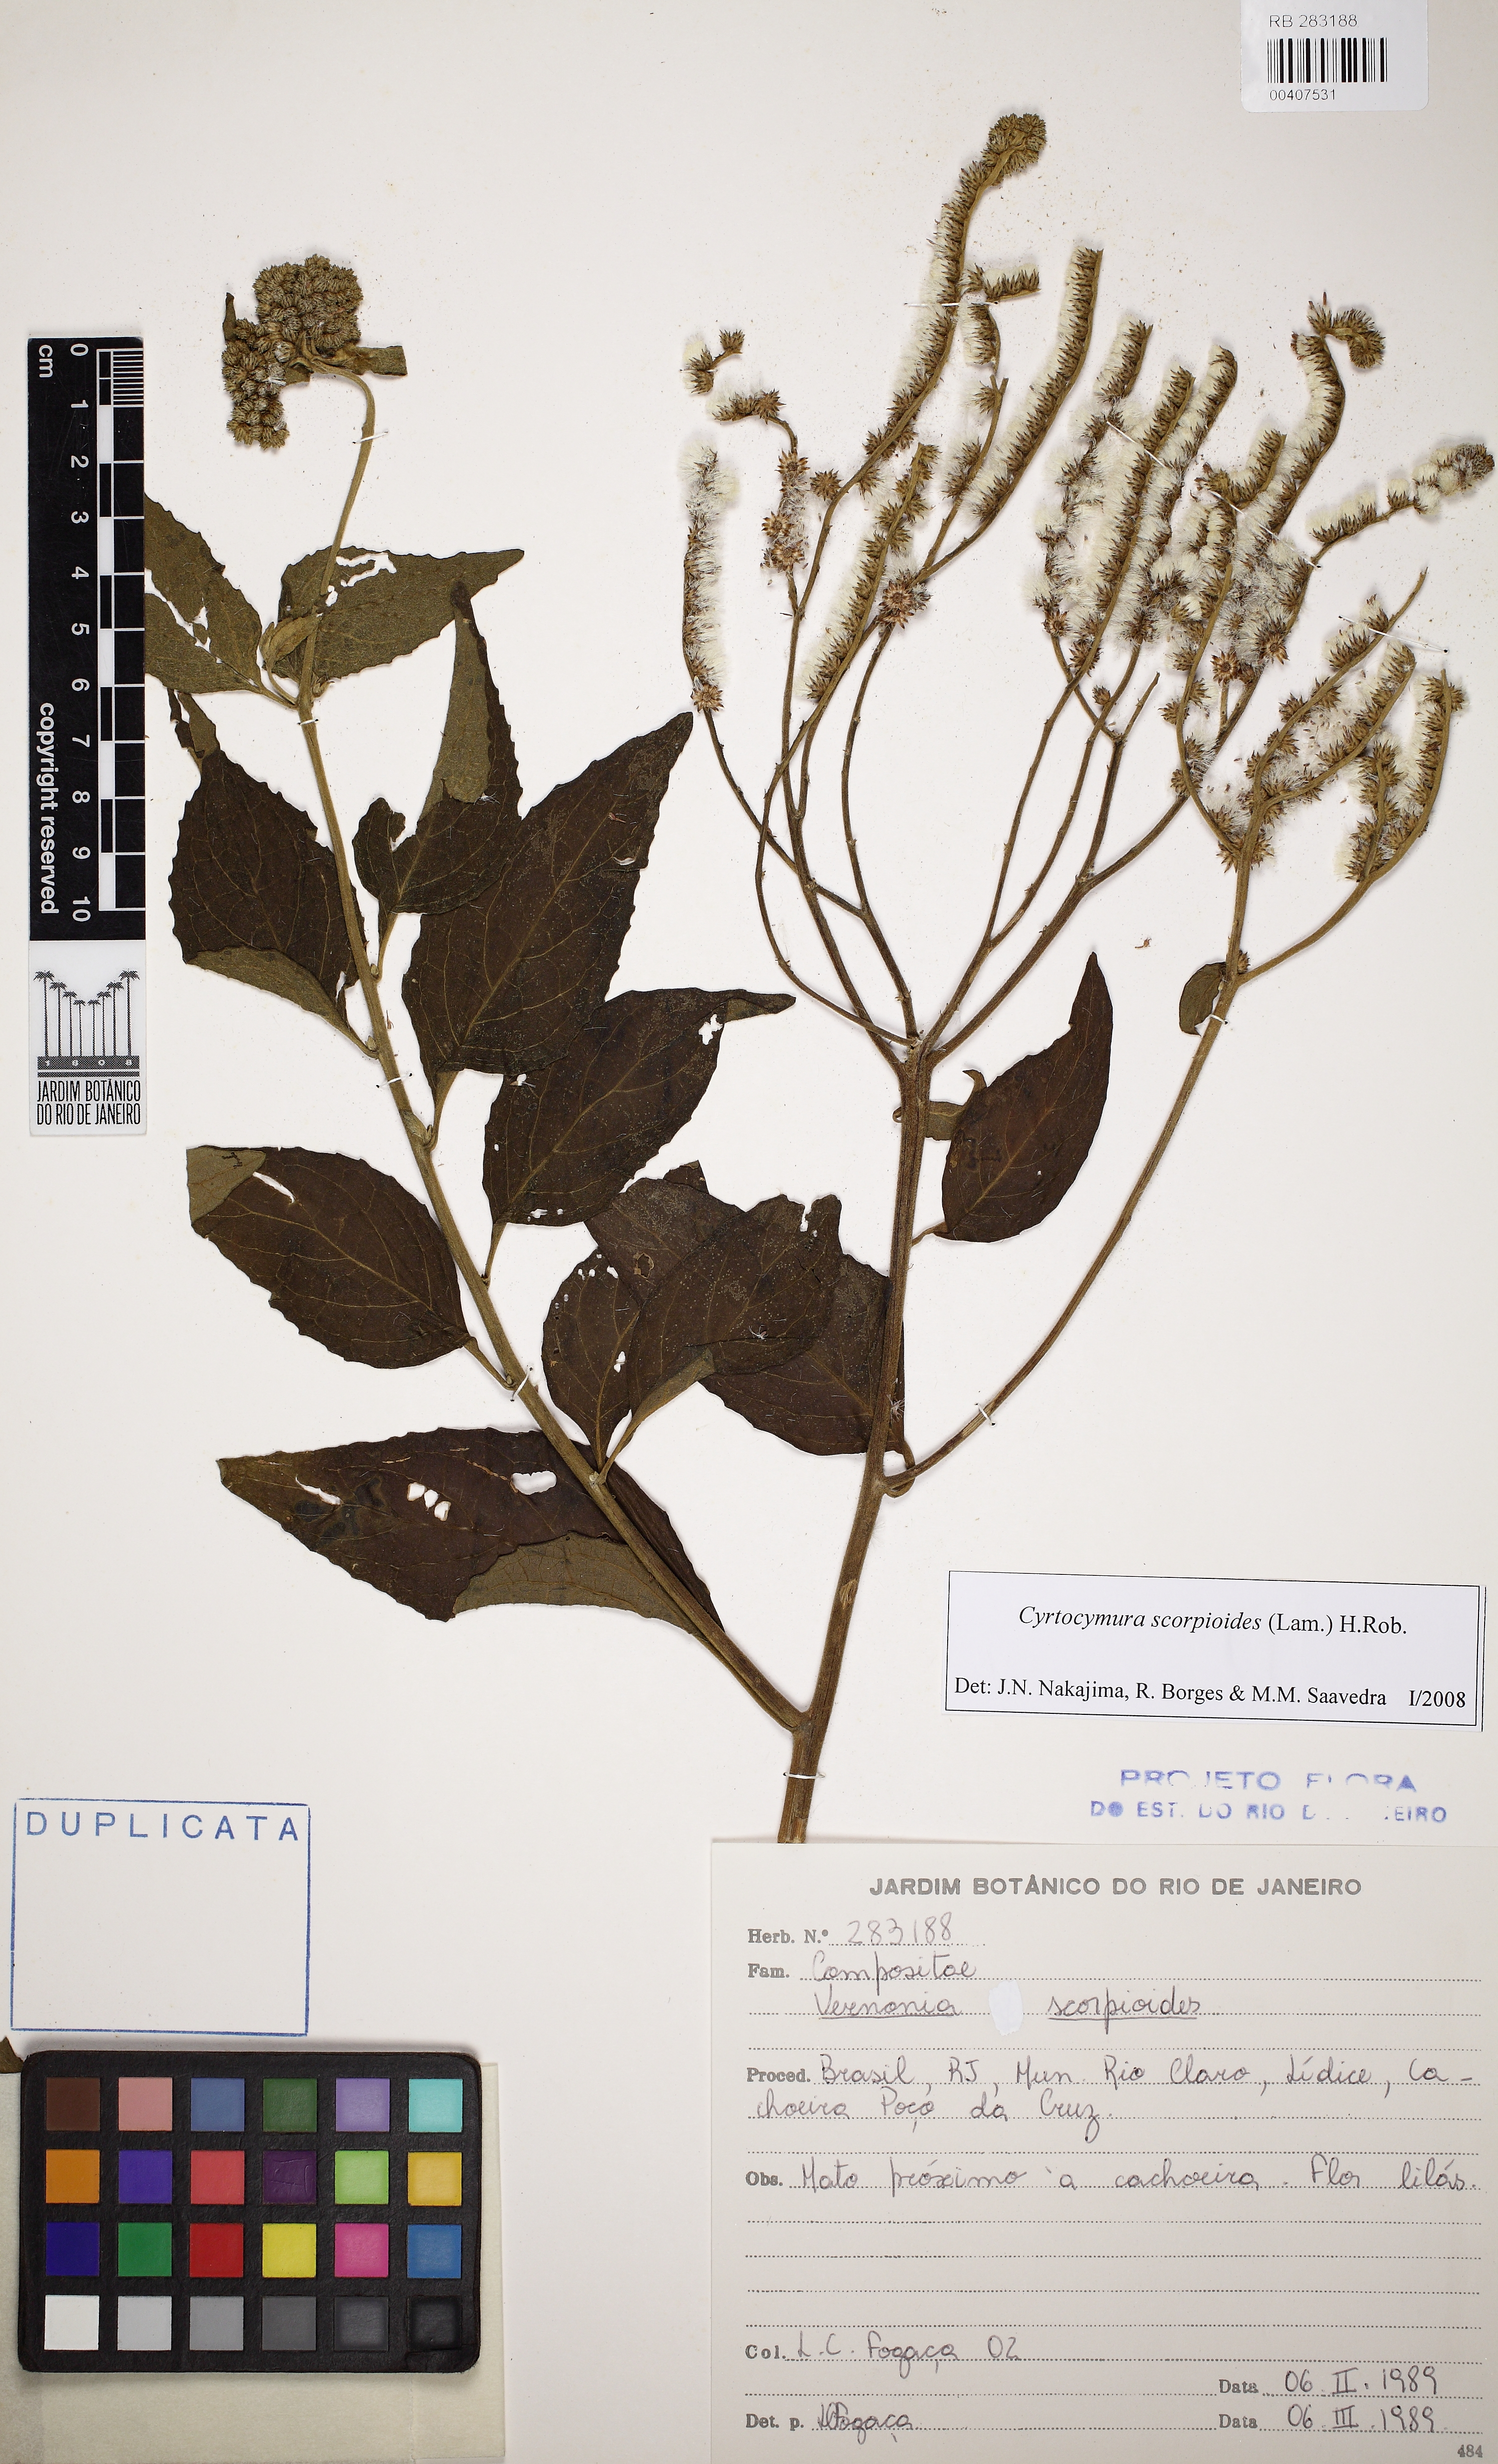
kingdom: Plantae
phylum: Tracheophyta
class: Magnoliopsida
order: Asterales
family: Asteraceae
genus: Cyrtocymura
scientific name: Cyrtocymura scorpioides
